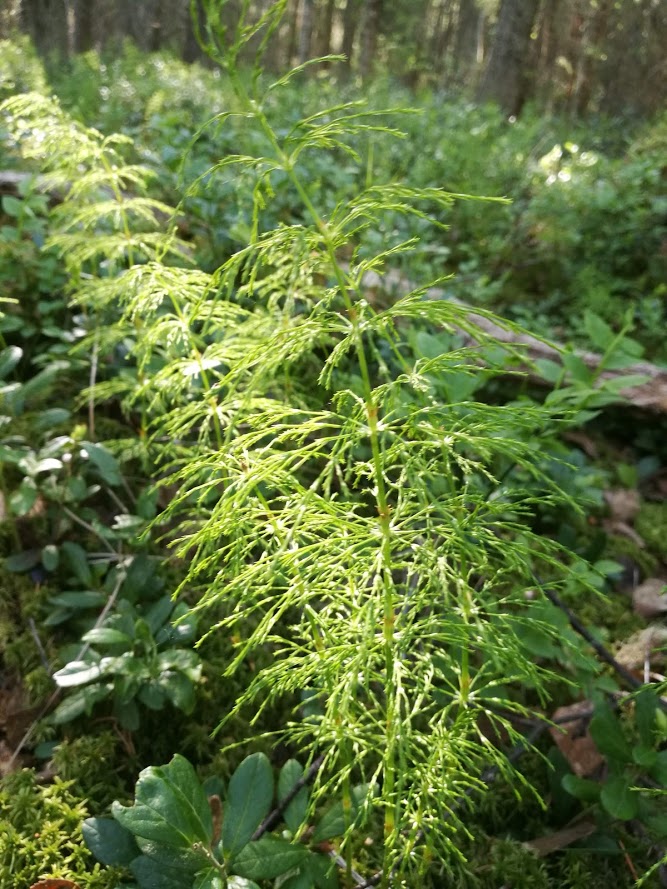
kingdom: Plantae
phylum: Tracheophyta
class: Polypodiopsida
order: Equisetales
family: Equisetaceae
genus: Equisetum
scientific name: Equisetum sylvaticum
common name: Wood horsetail
